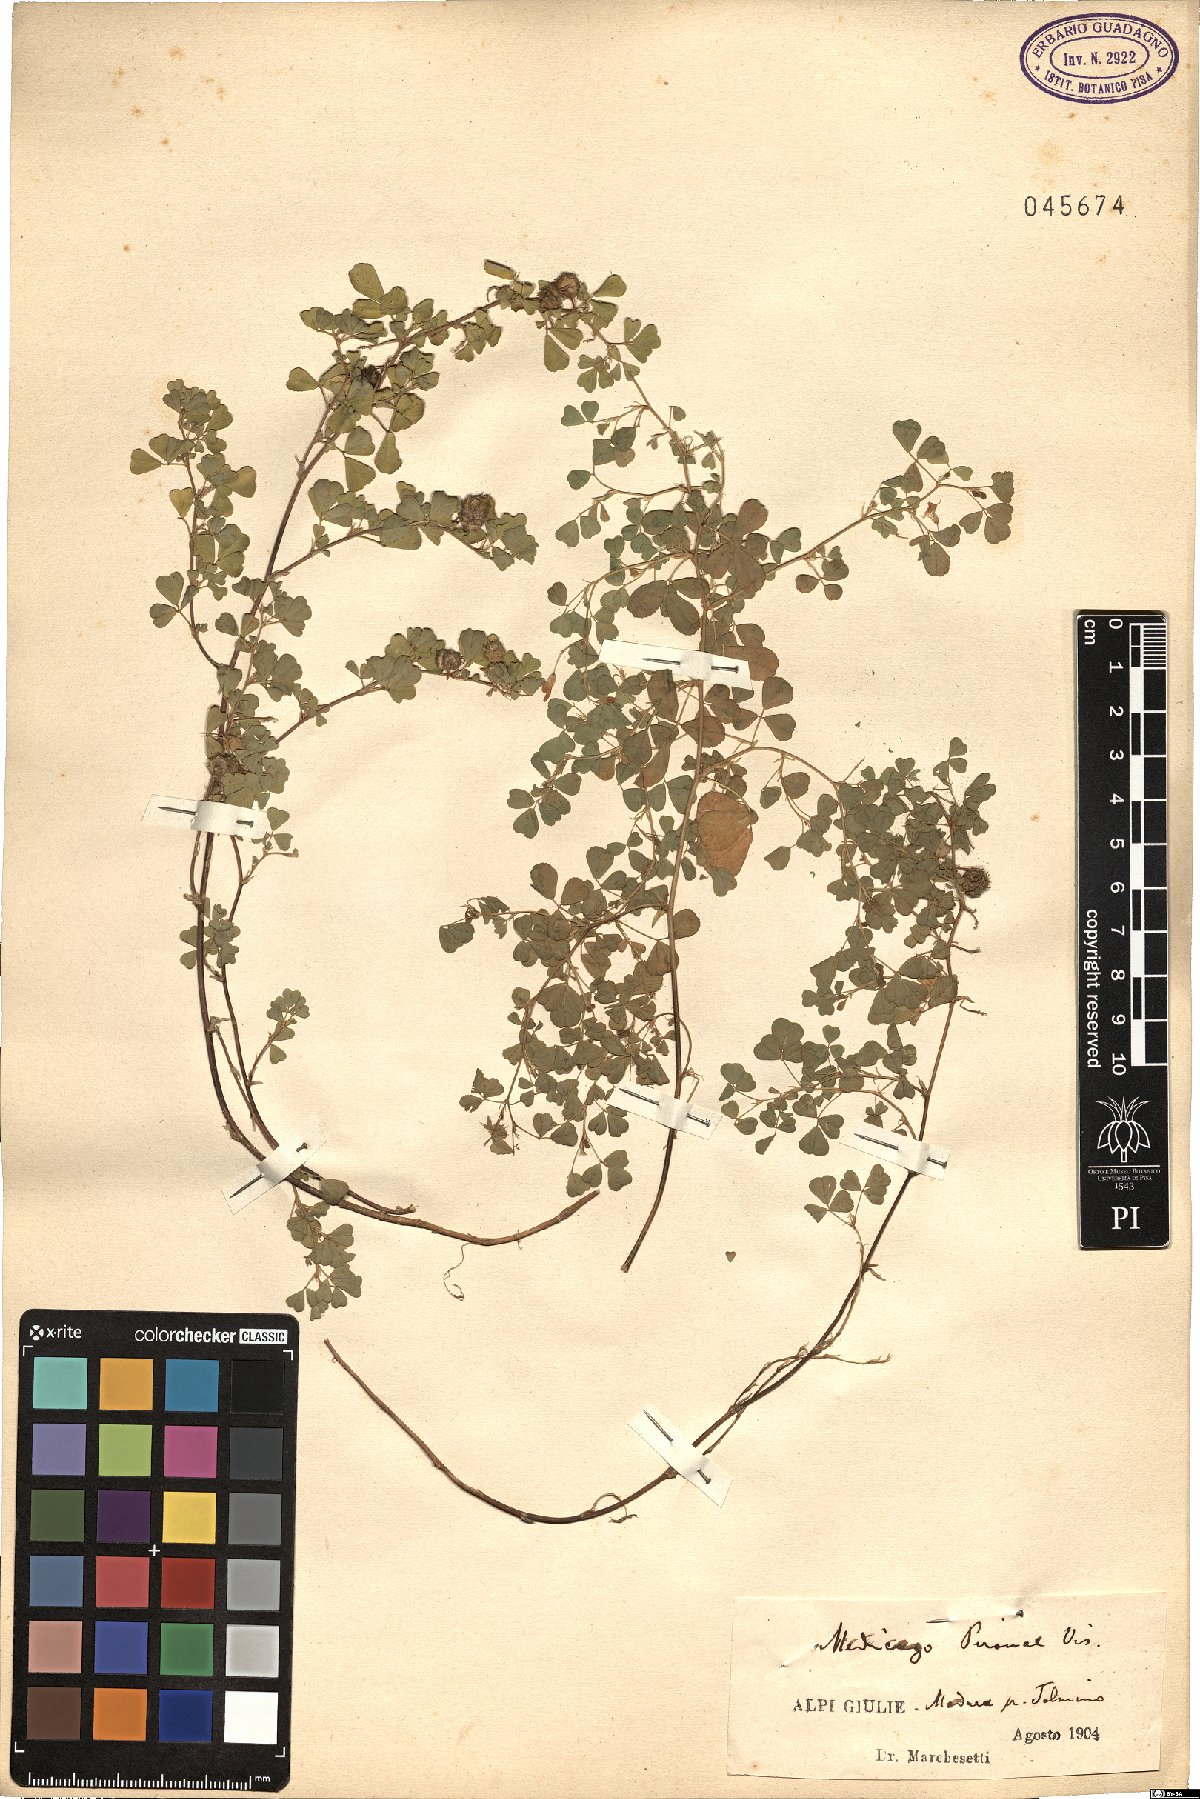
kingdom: Plantae
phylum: Tracheophyta
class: Magnoliopsida
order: Fabales
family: Fabaceae
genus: Medicago
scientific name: Medicago pironae
